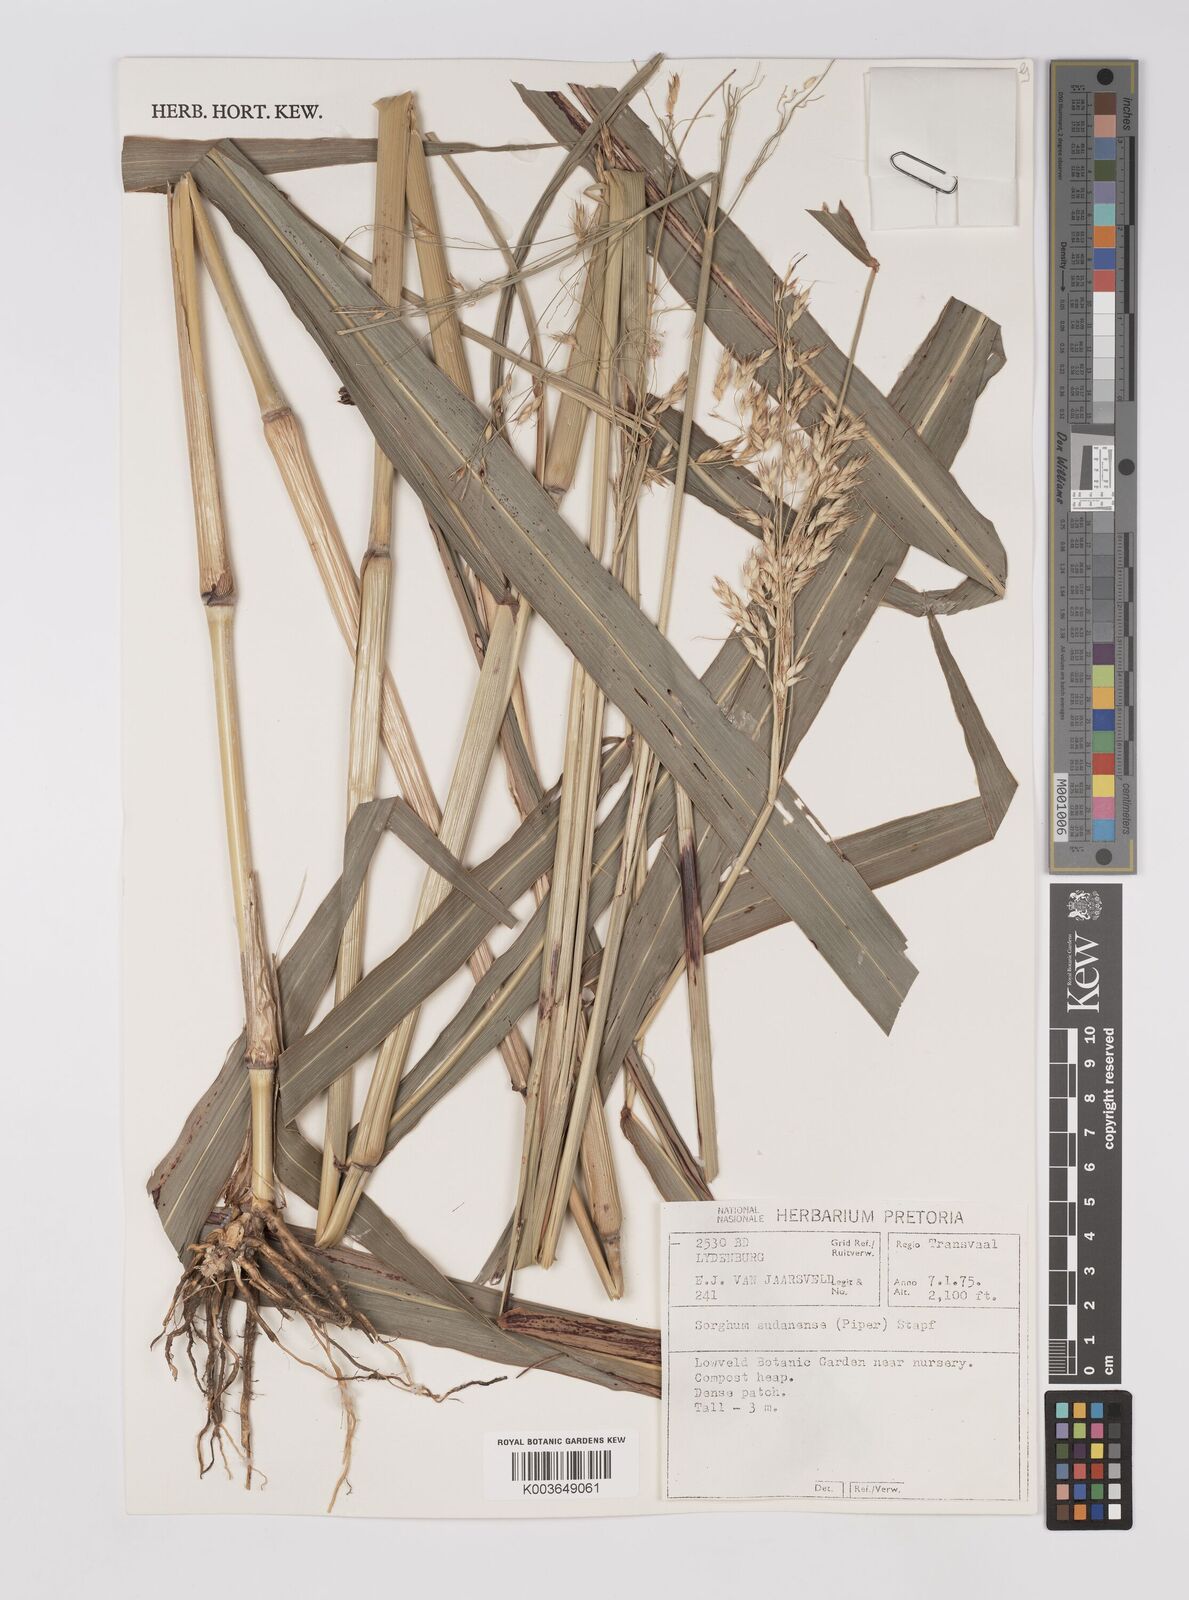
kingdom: Plantae
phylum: Tracheophyta
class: Liliopsida
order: Poales
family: Poaceae
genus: Sorghum
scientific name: Sorghum drummondii
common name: Sudangrass
